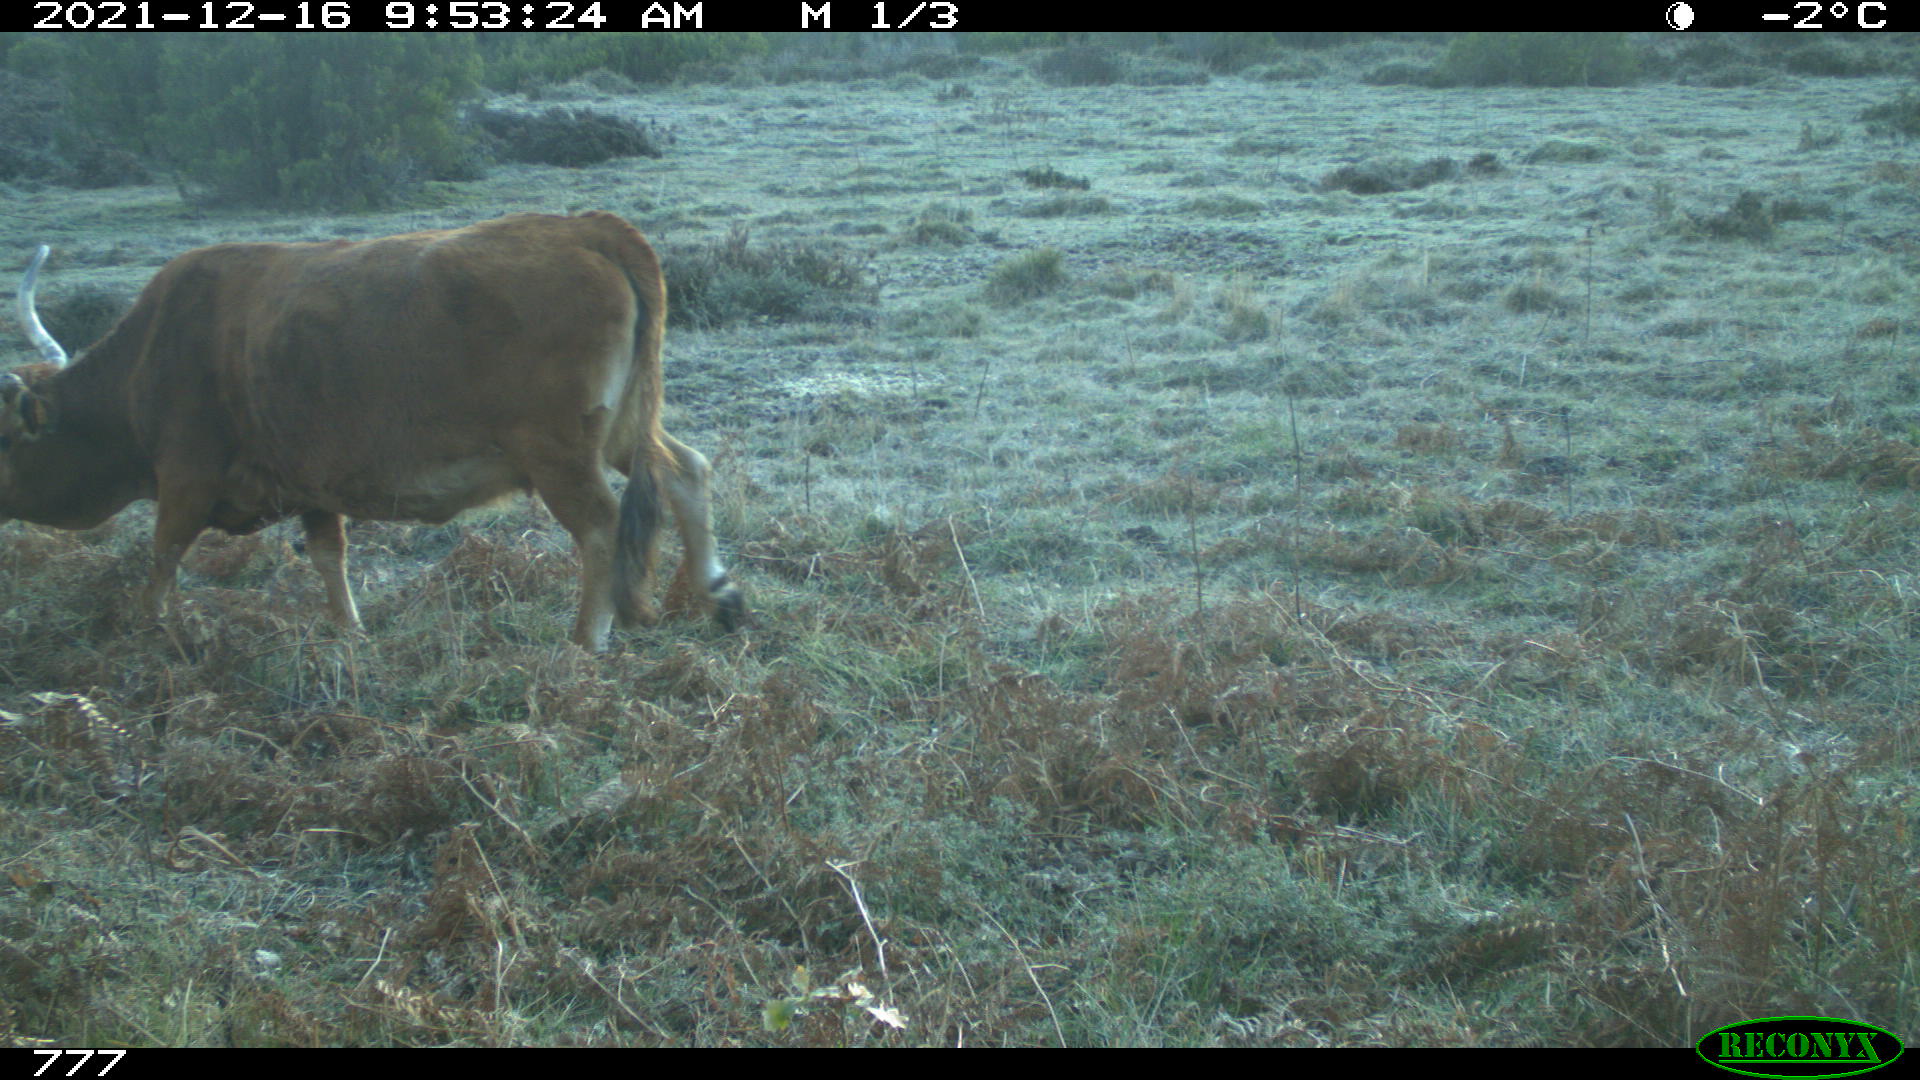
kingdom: Animalia
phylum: Chordata
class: Mammalia
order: Artiodactyla
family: Bovidae
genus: Bos
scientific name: Bos taurus
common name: Domesticated cattle
